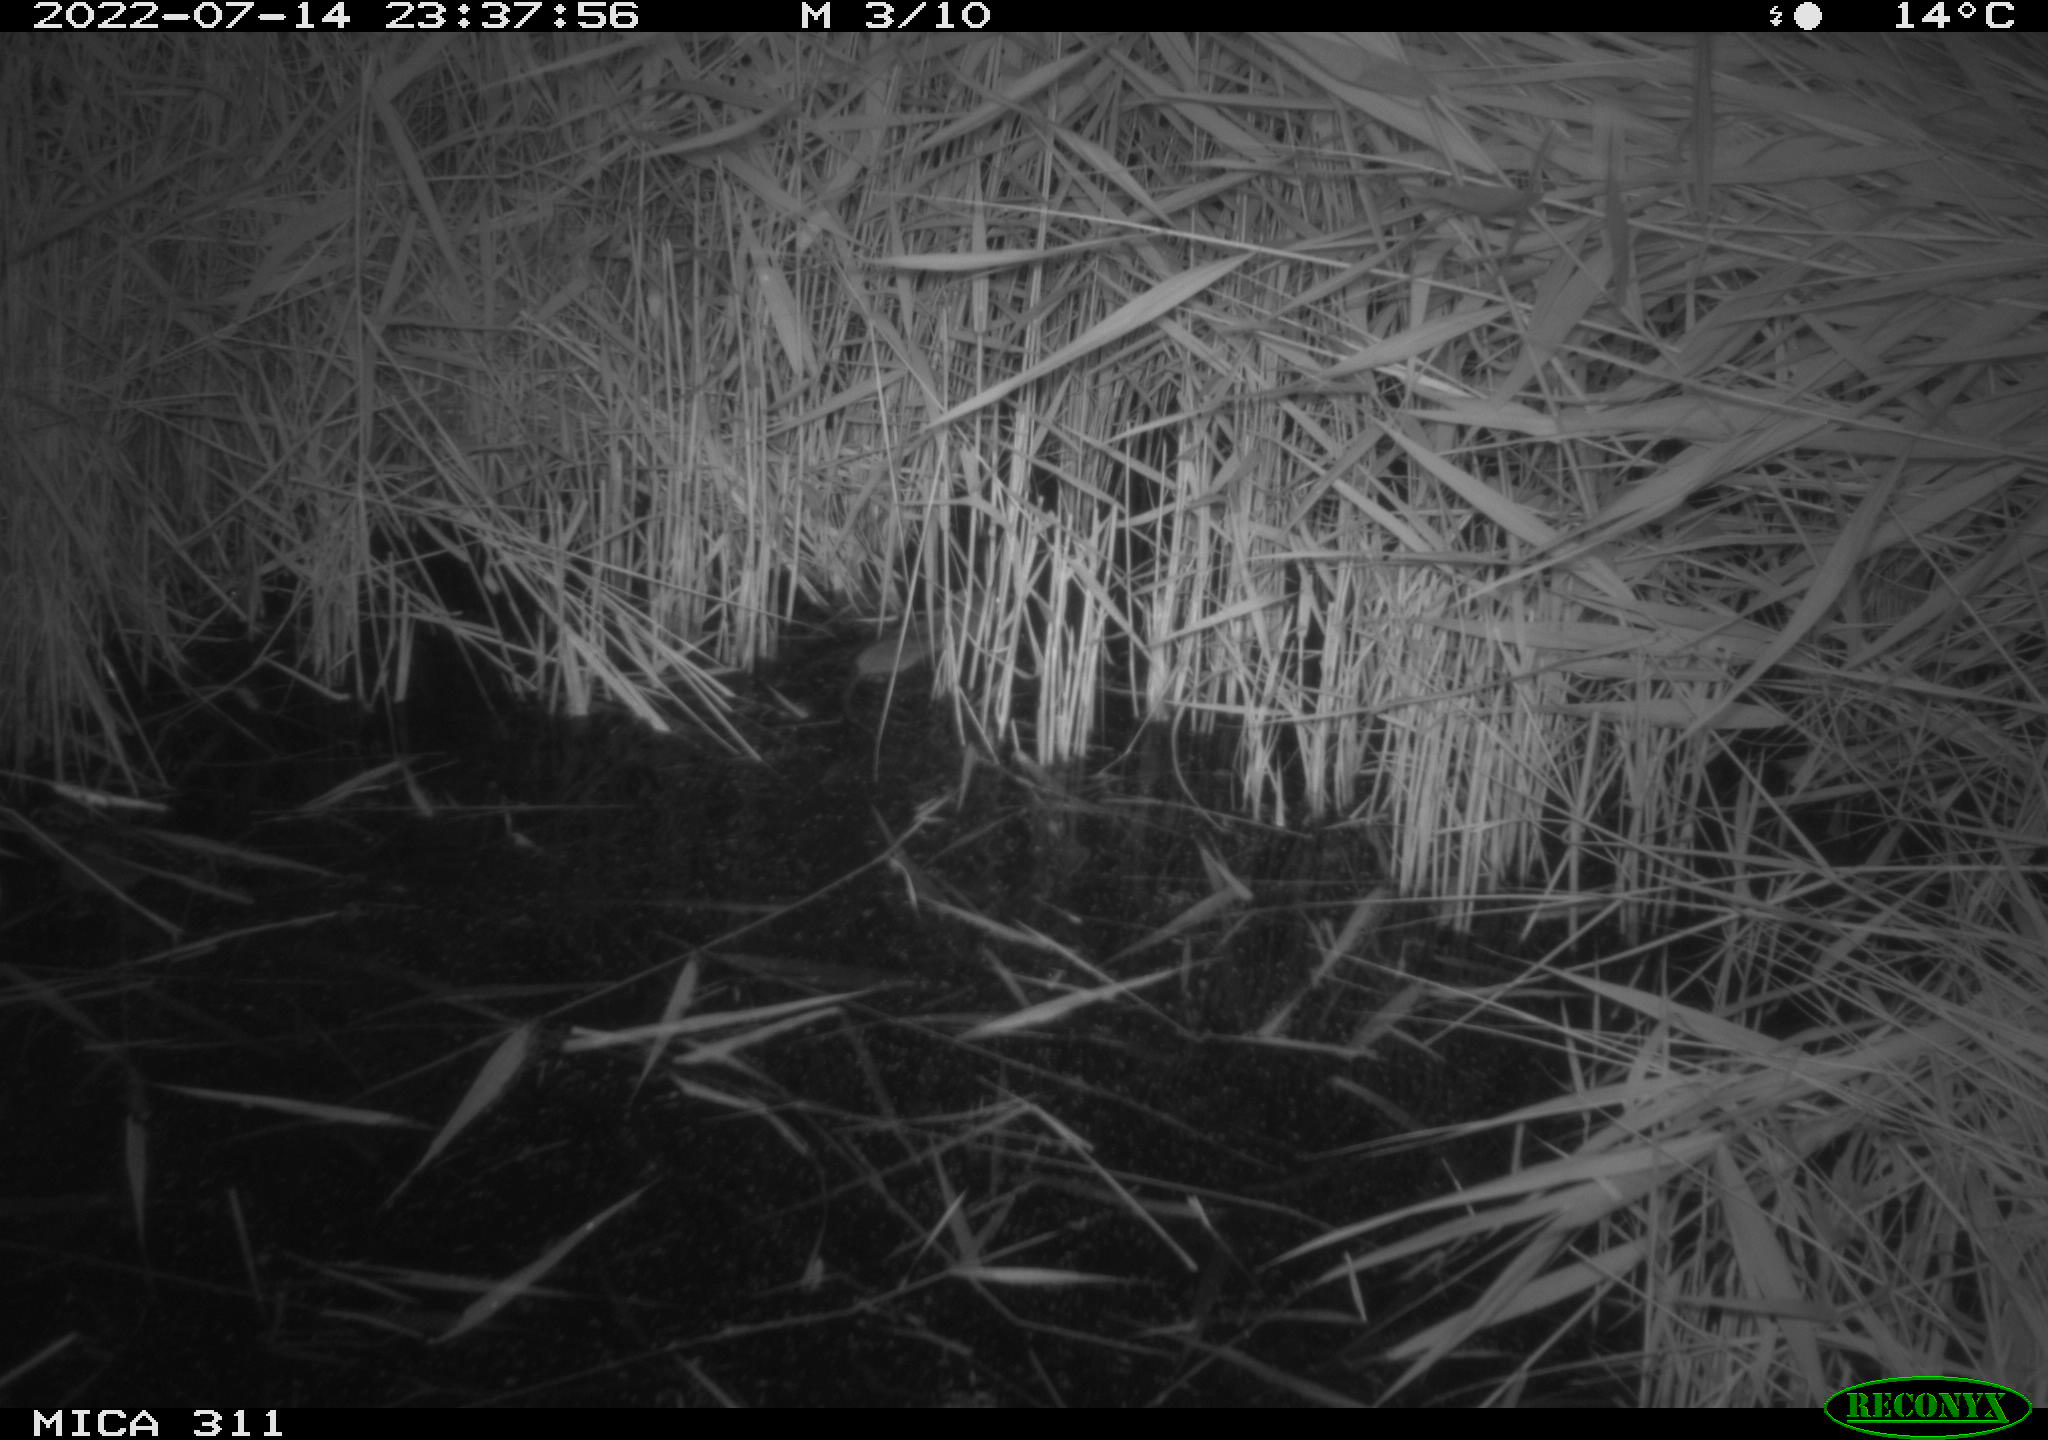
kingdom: Animalia
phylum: Chordata
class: Mammalia
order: Rodentia
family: Muridae
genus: Rattus
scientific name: Rattus norvegicus
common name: Brown rat
